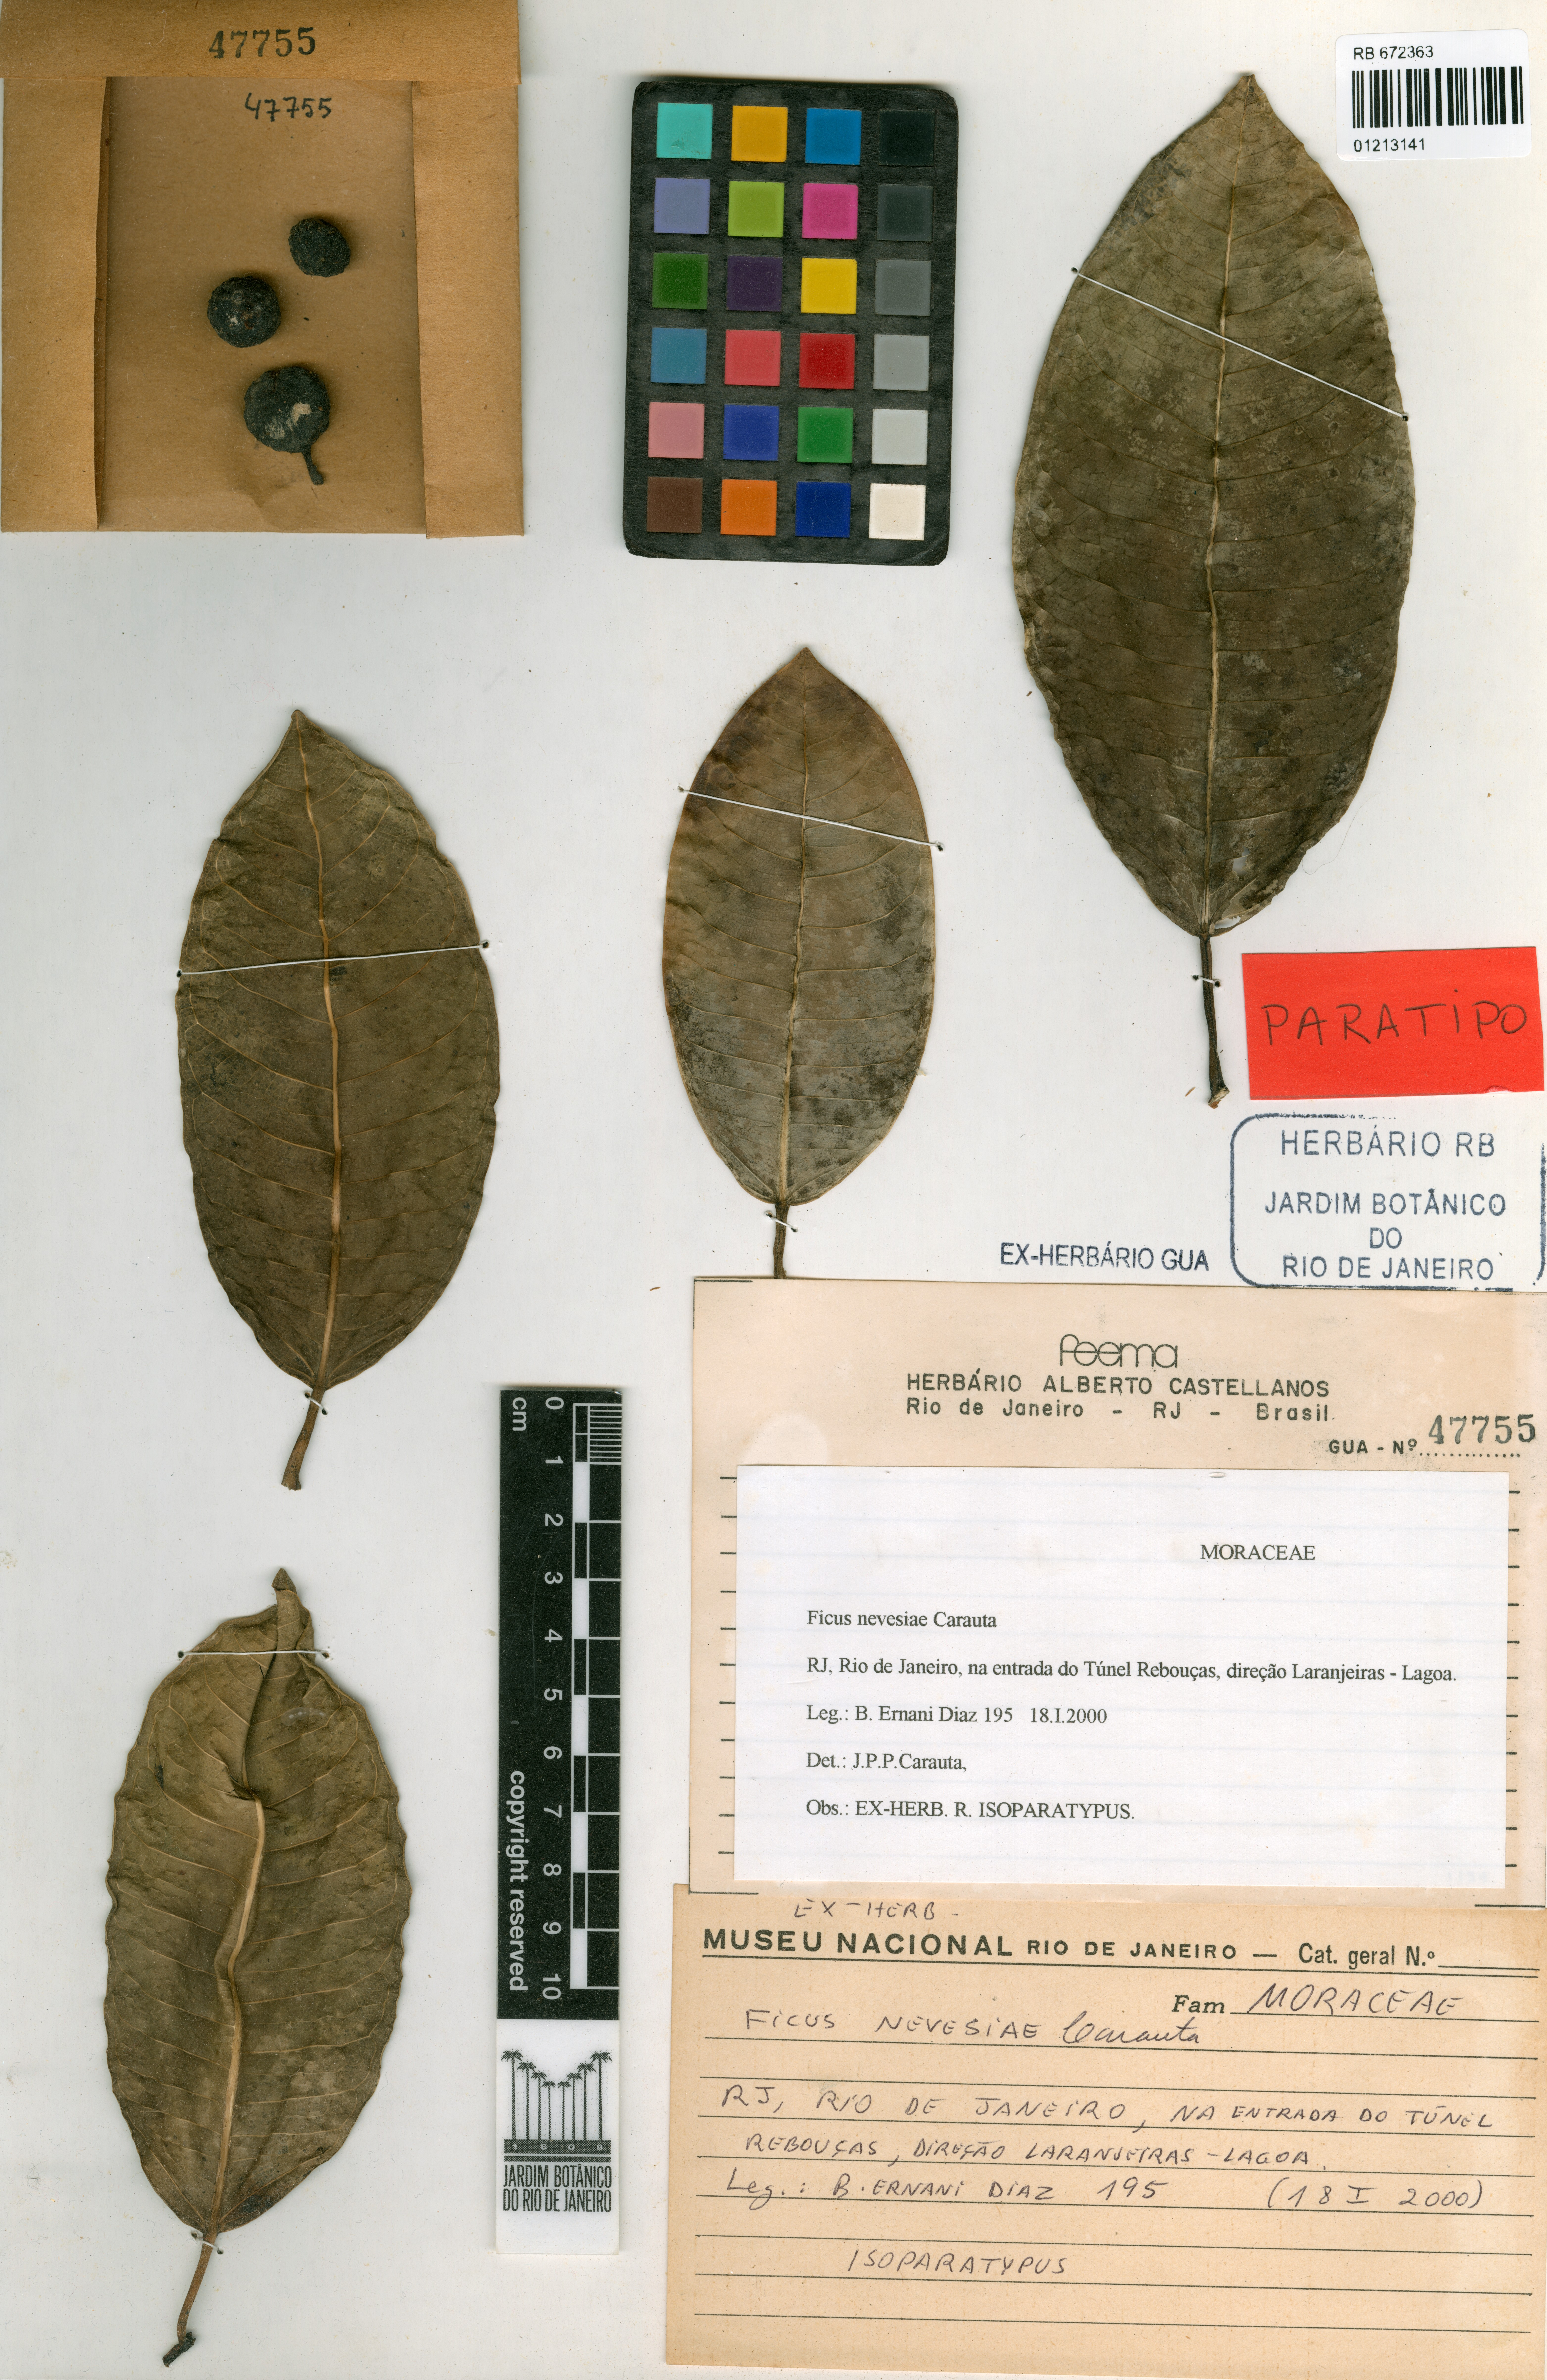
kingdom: Plantae
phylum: Tracheophyta
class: Magnoliopsida
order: Rosales
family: Moraceae
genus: Ficus
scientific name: Ficus vermifuga
